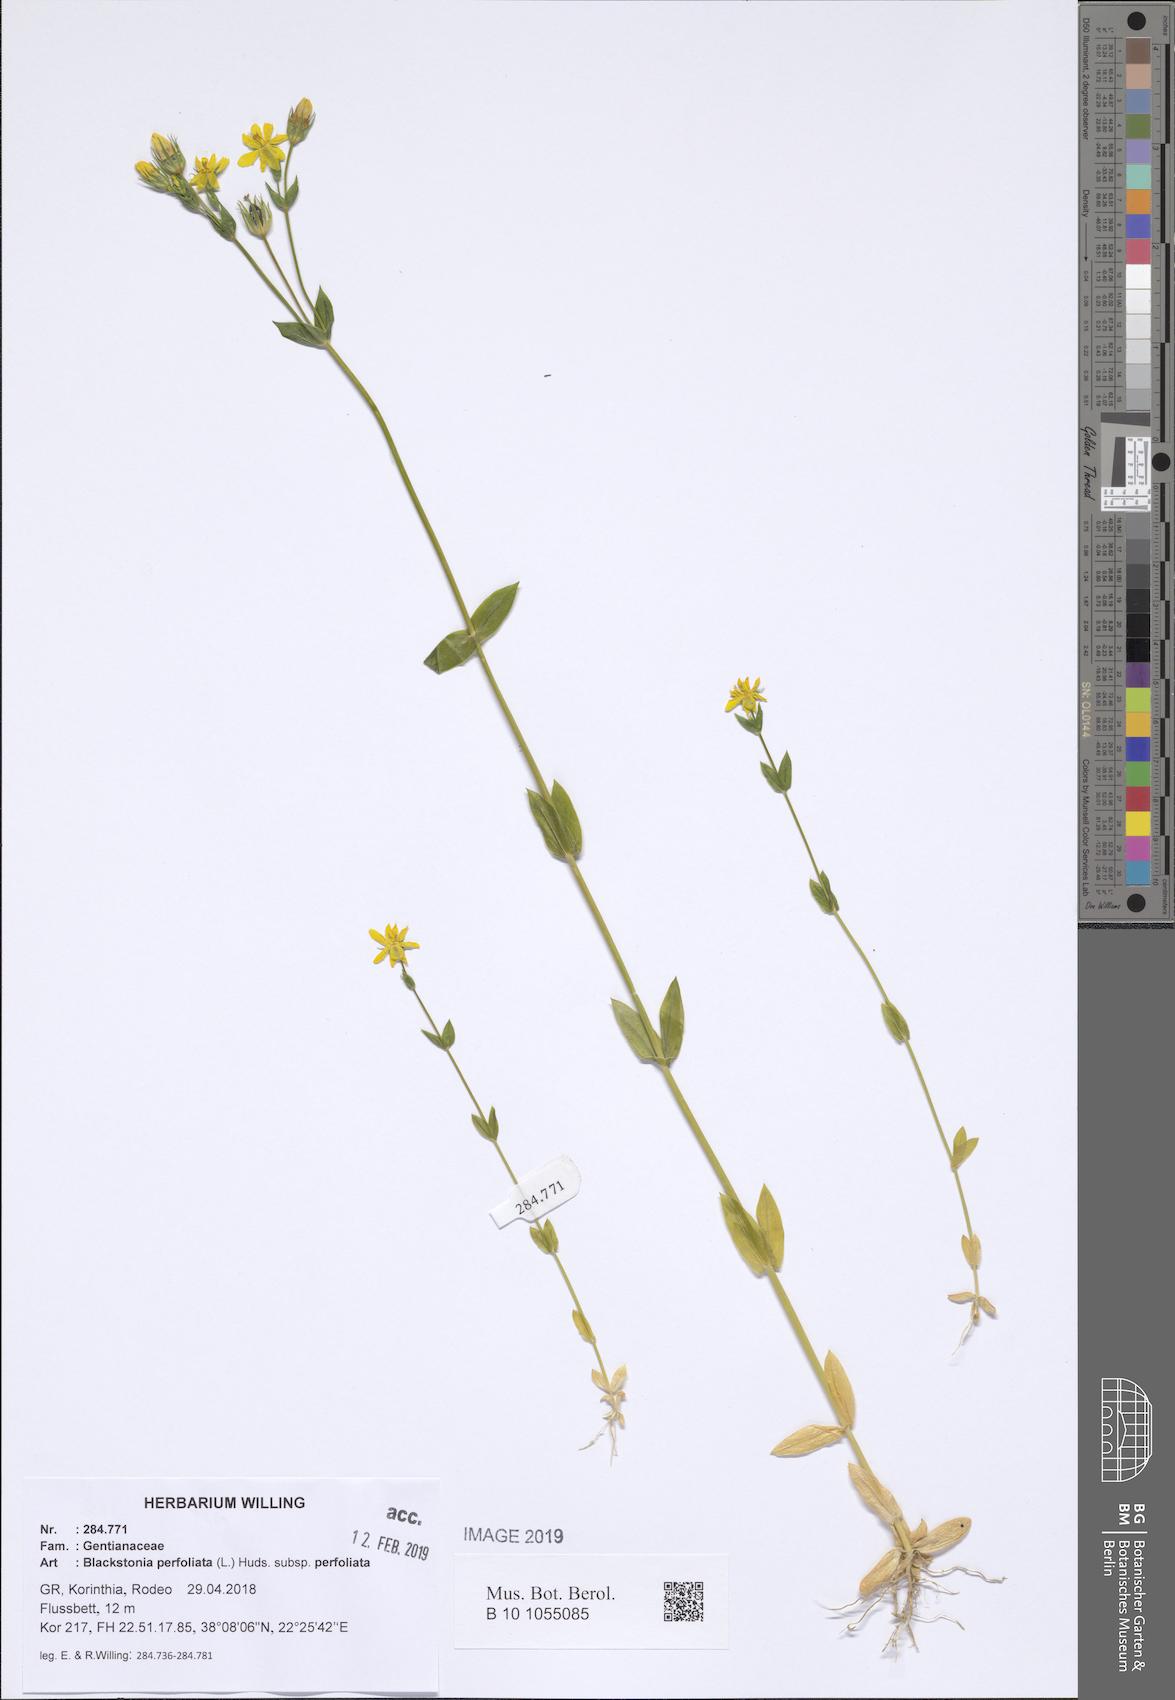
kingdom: Plantae
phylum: Tracheophyta
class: Magnoliopsida
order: Gentianales
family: Gentianaceae
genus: Blackstonia
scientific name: Blackstonia perfoliata
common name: Yellow-wort
